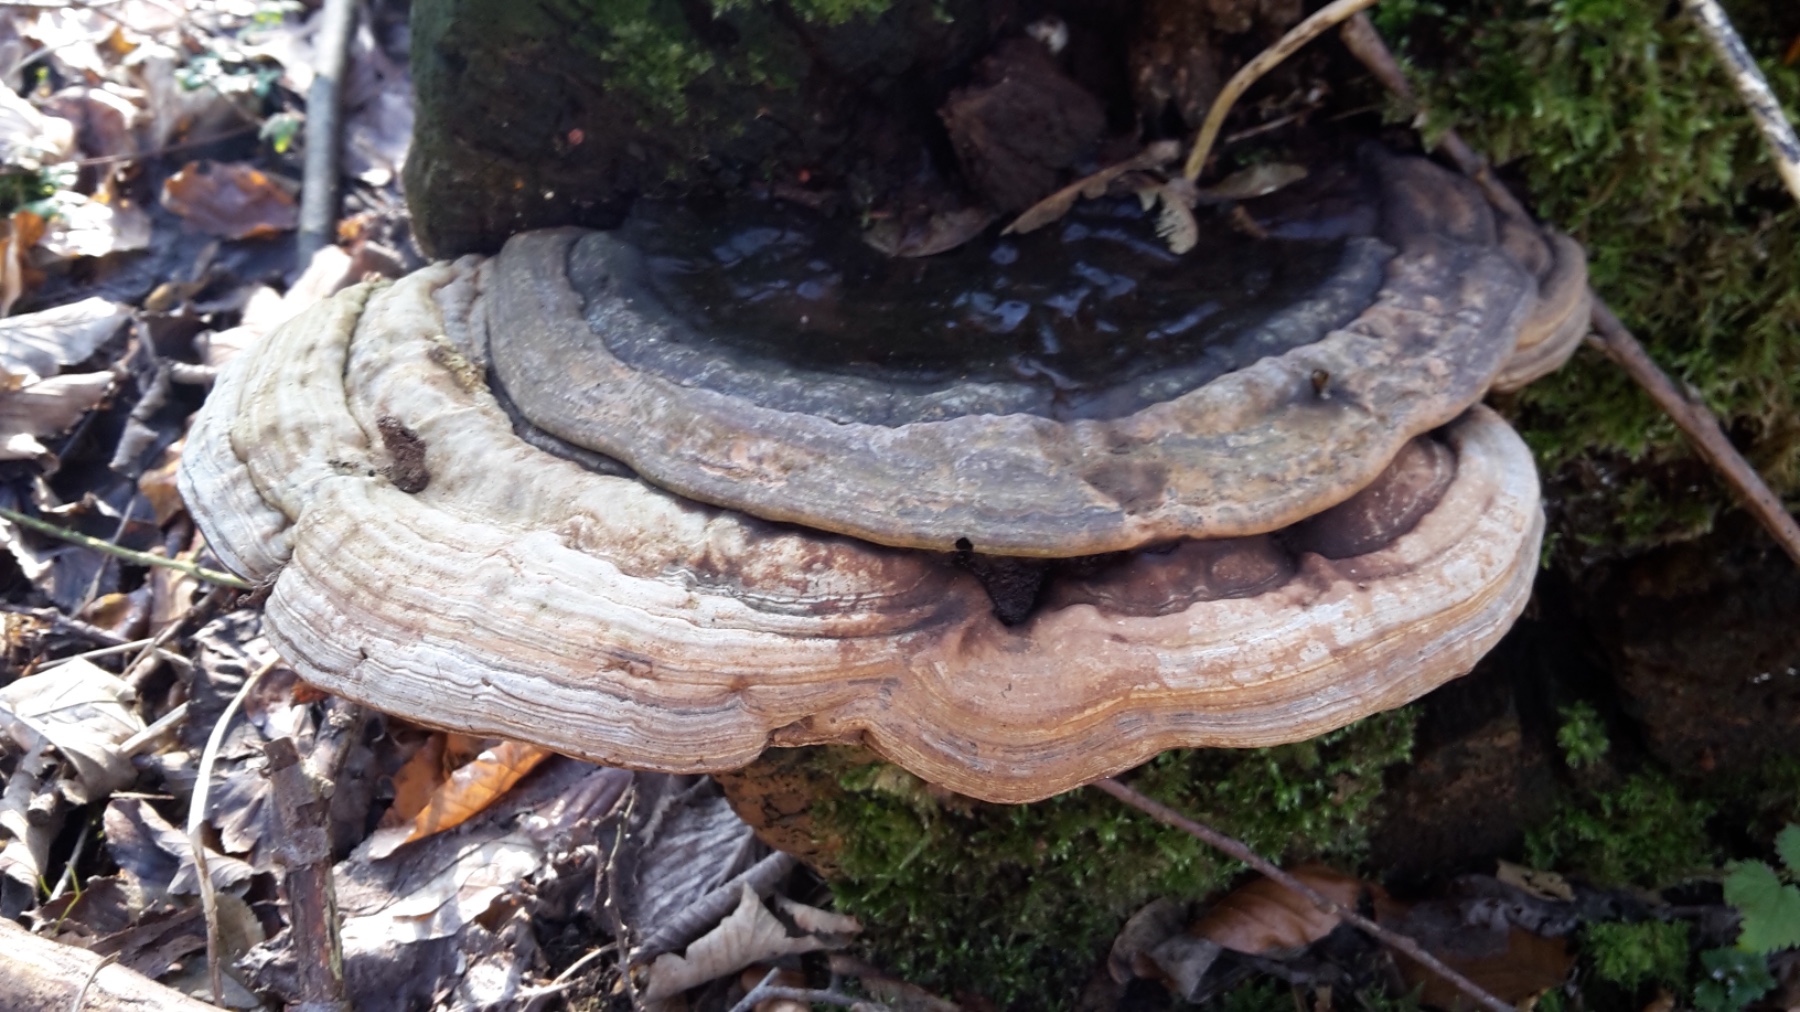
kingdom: Fungi
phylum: Basidiomycota
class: Agaricomycetes
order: Polyporales
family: Polyporaceae
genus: Ganoderma
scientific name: Ganoderma applanatum
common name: flad lakporesvamp
